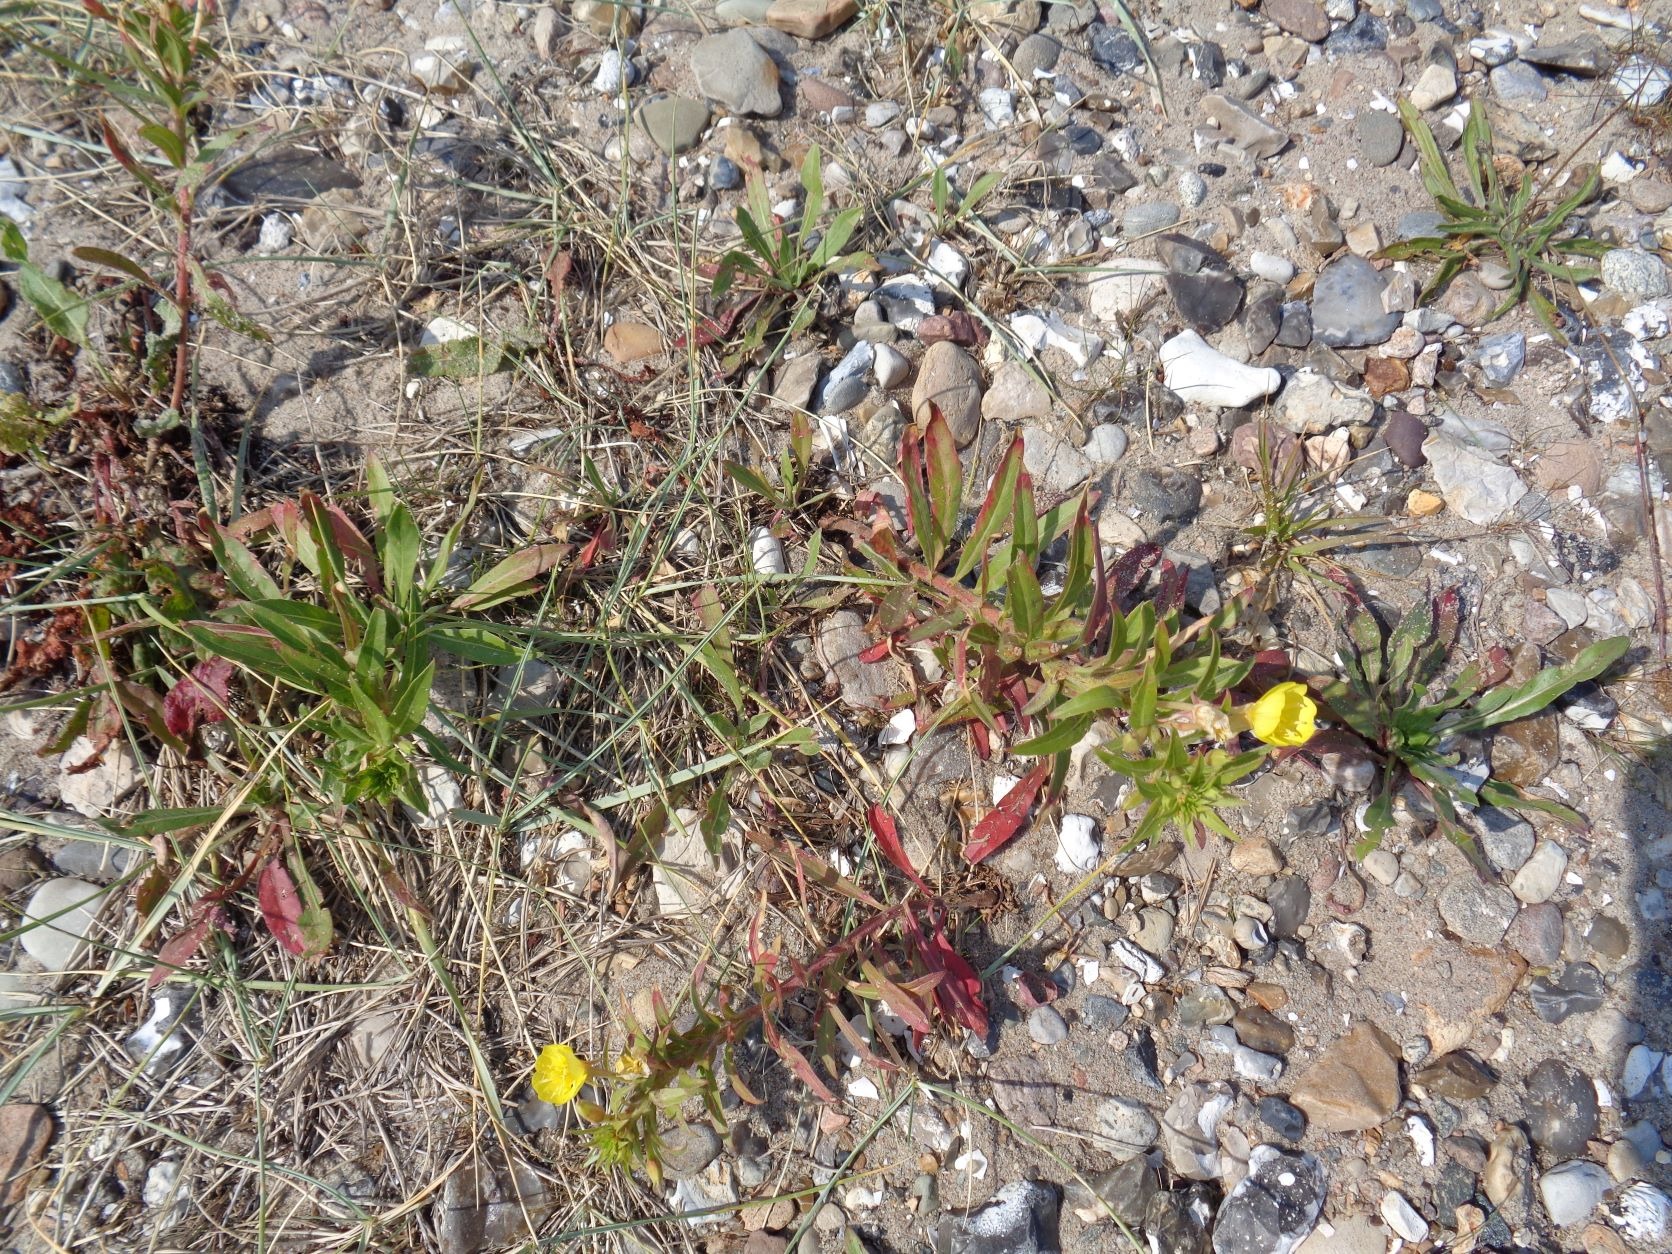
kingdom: Plantae
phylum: Tracheophyta
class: Magnoliopsida
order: Myrtales
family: Onagraceae
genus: Oenothera
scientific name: Oenothera ammophila
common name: Klit-natlys
